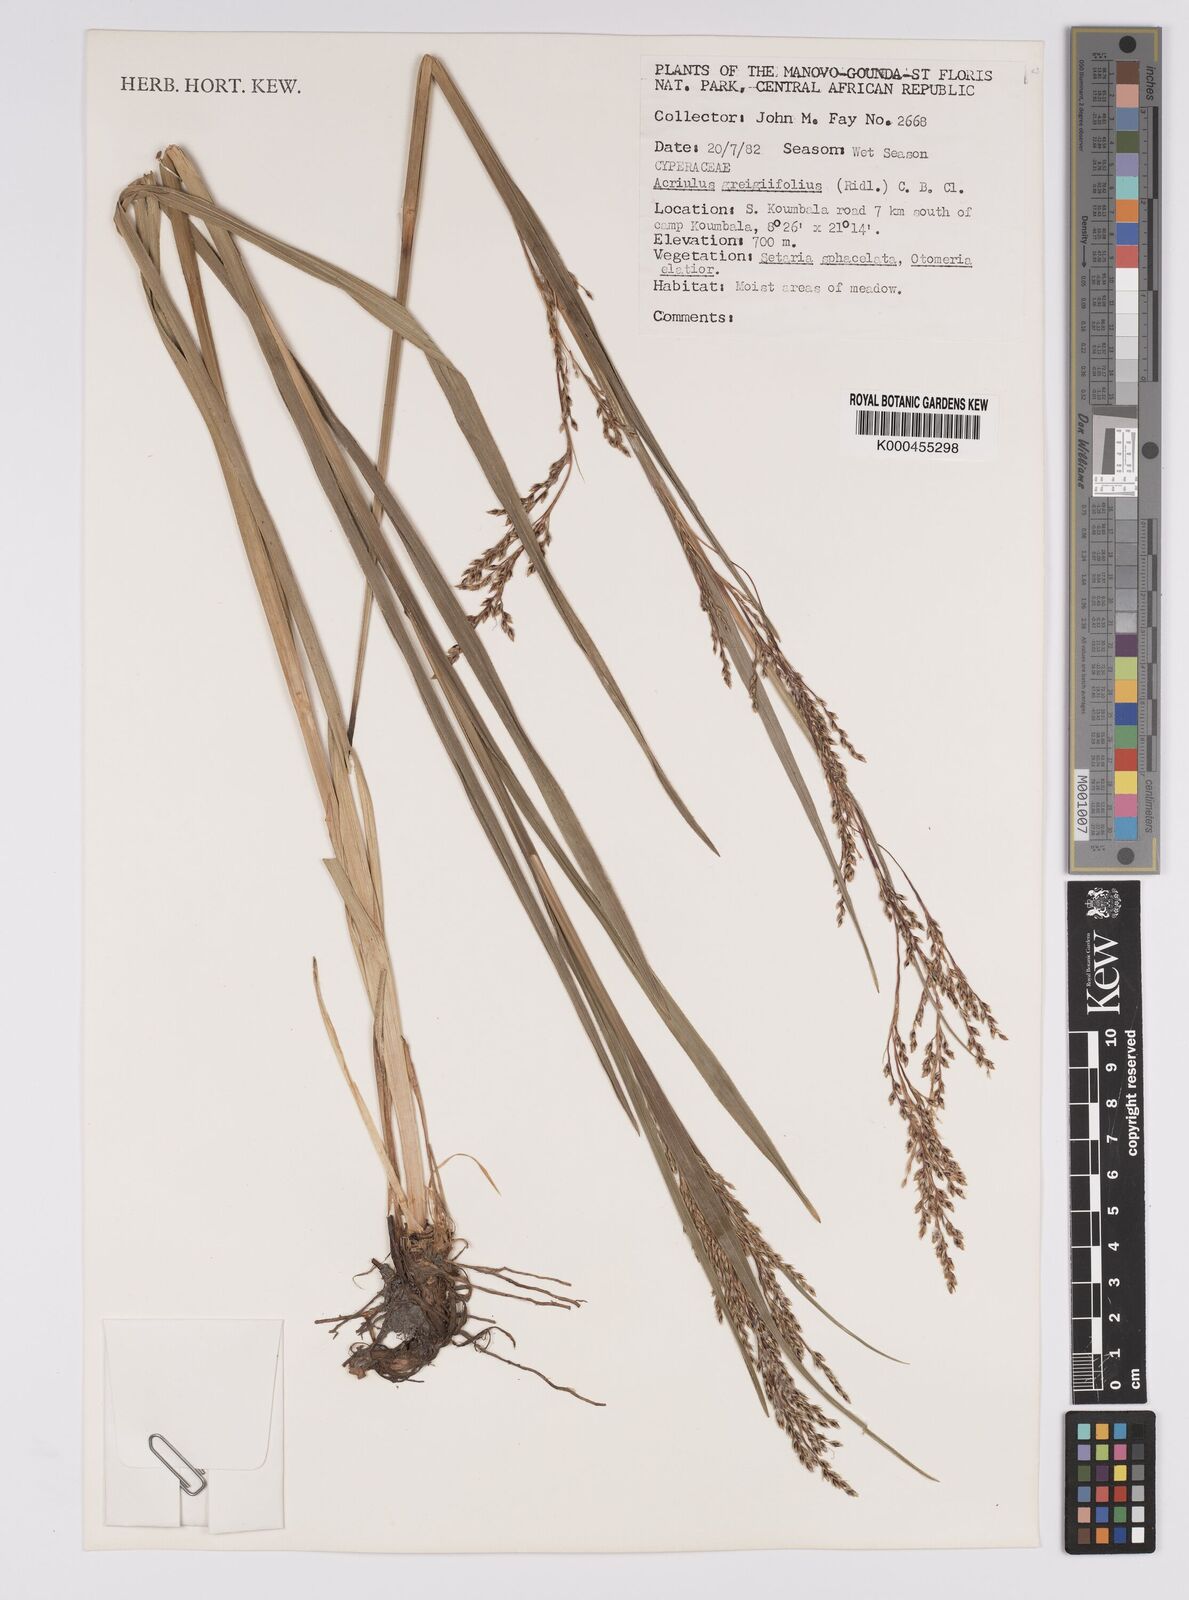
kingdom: Plantae
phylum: Tracheophyta
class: Liliopsida
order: Poales
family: Cyperaceae
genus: Scleria
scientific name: Scleria greigiifolia
